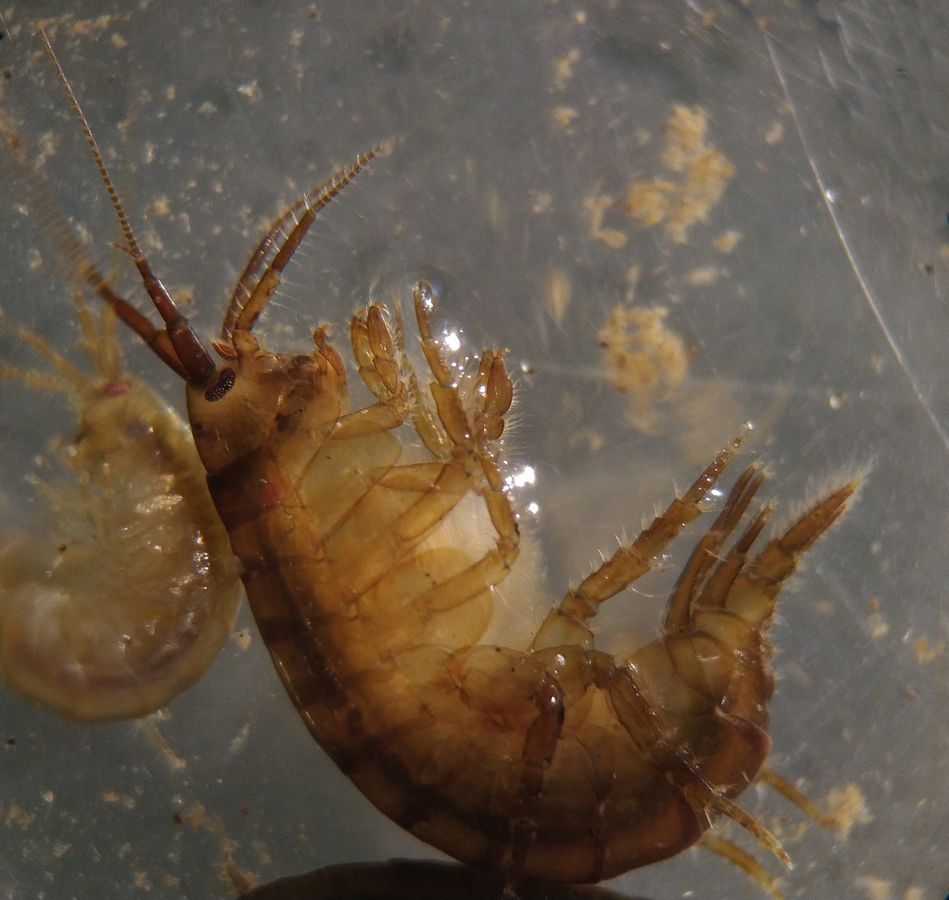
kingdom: Animalia
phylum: Arthropoda
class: Malacostraca
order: Amphipoda
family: Gammaridae
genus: Gammarus
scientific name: Gammarus oceanicus
